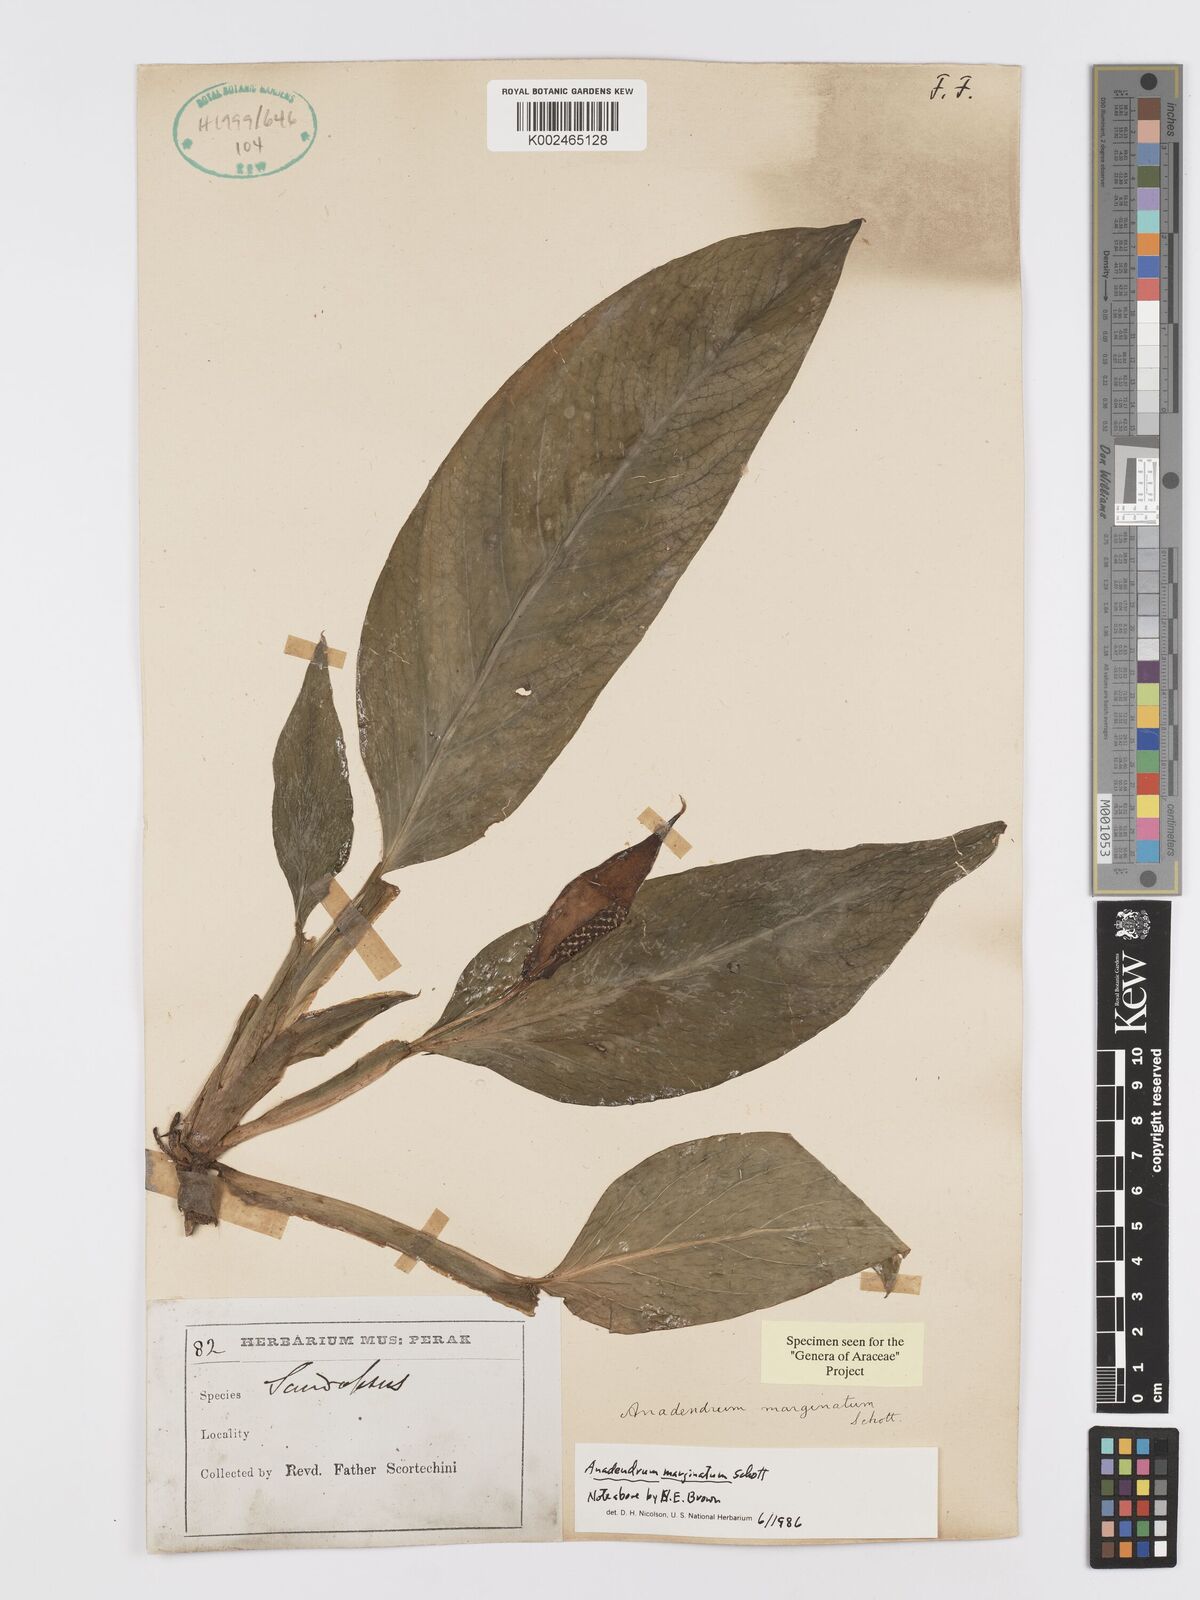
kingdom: Plantae
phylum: Tracheophyta
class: Liliopsida
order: Alismatales
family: Araceae
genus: Anadendrum
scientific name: Anadendrum marginatum
